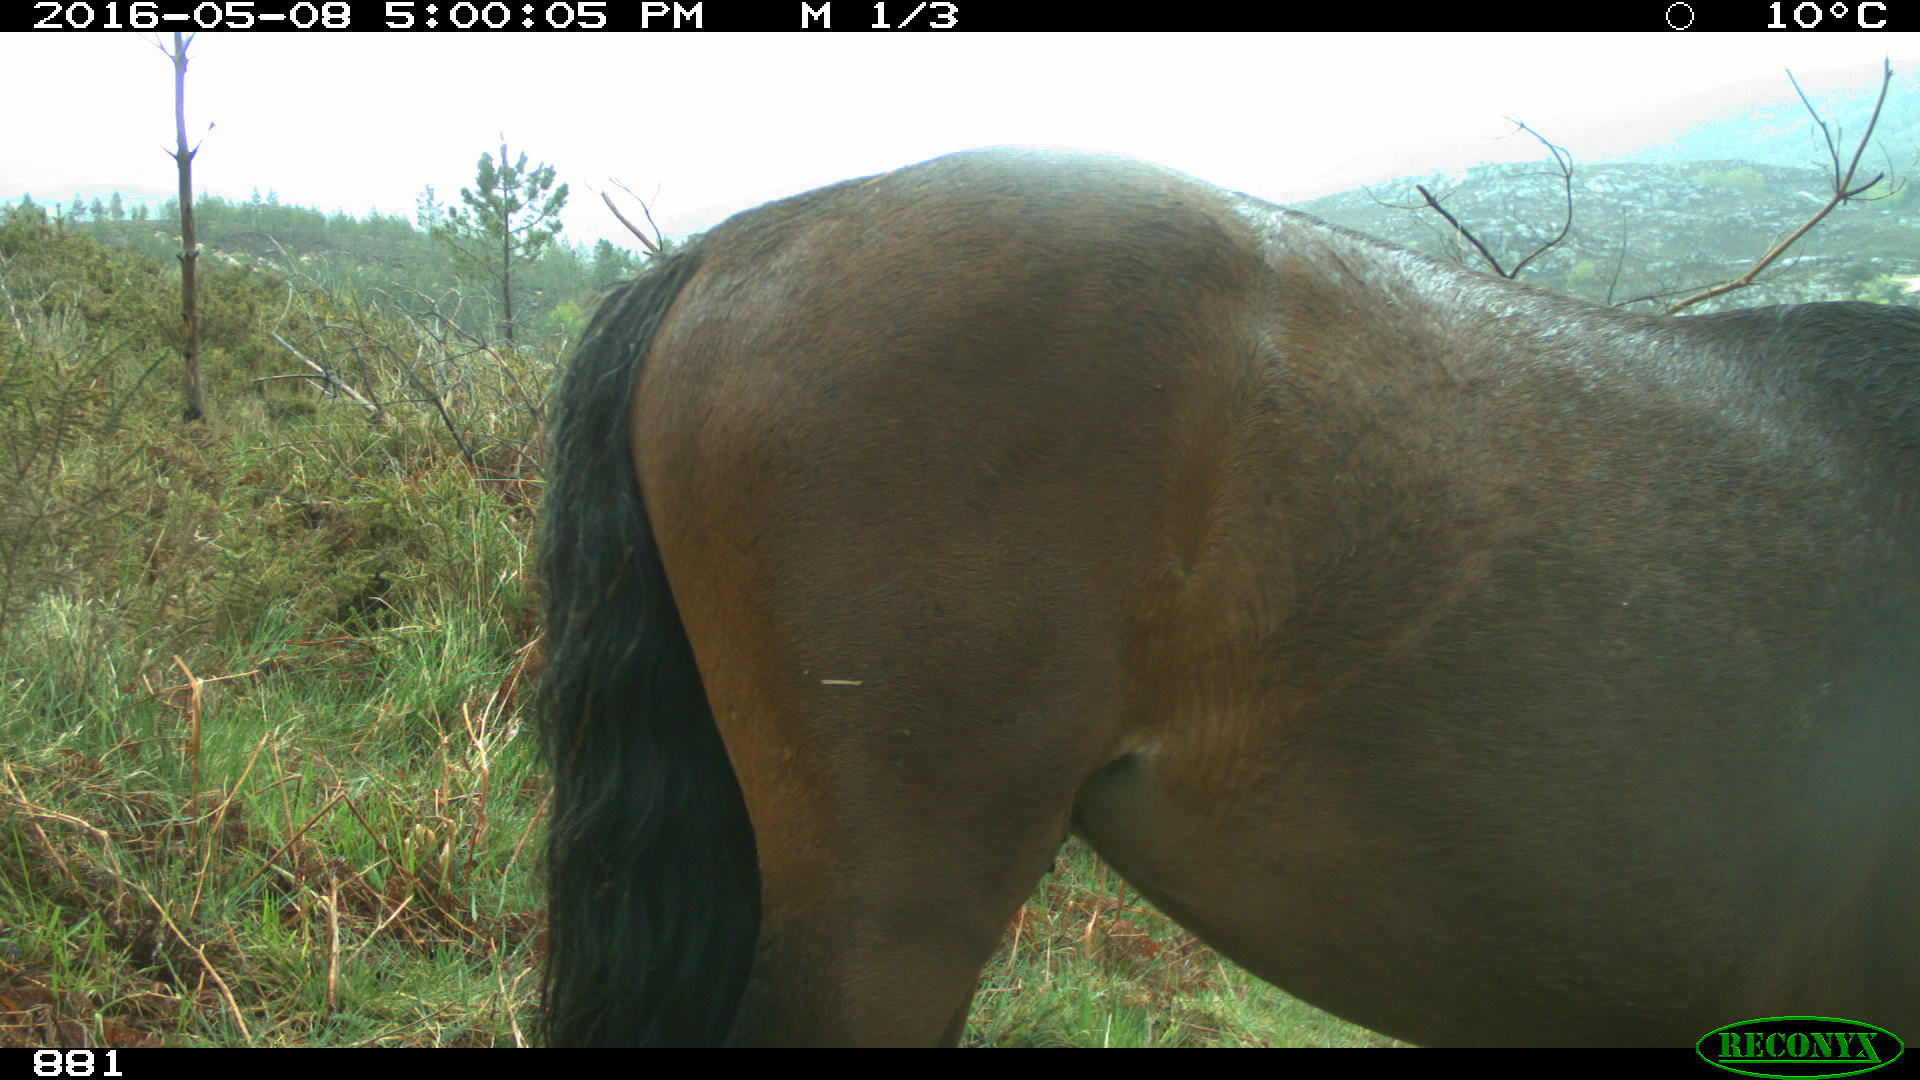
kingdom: Animalia
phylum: Chordata
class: Mammalia
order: Perissodactyla
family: Equidae
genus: Equus
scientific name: Equus caballus
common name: Horse
